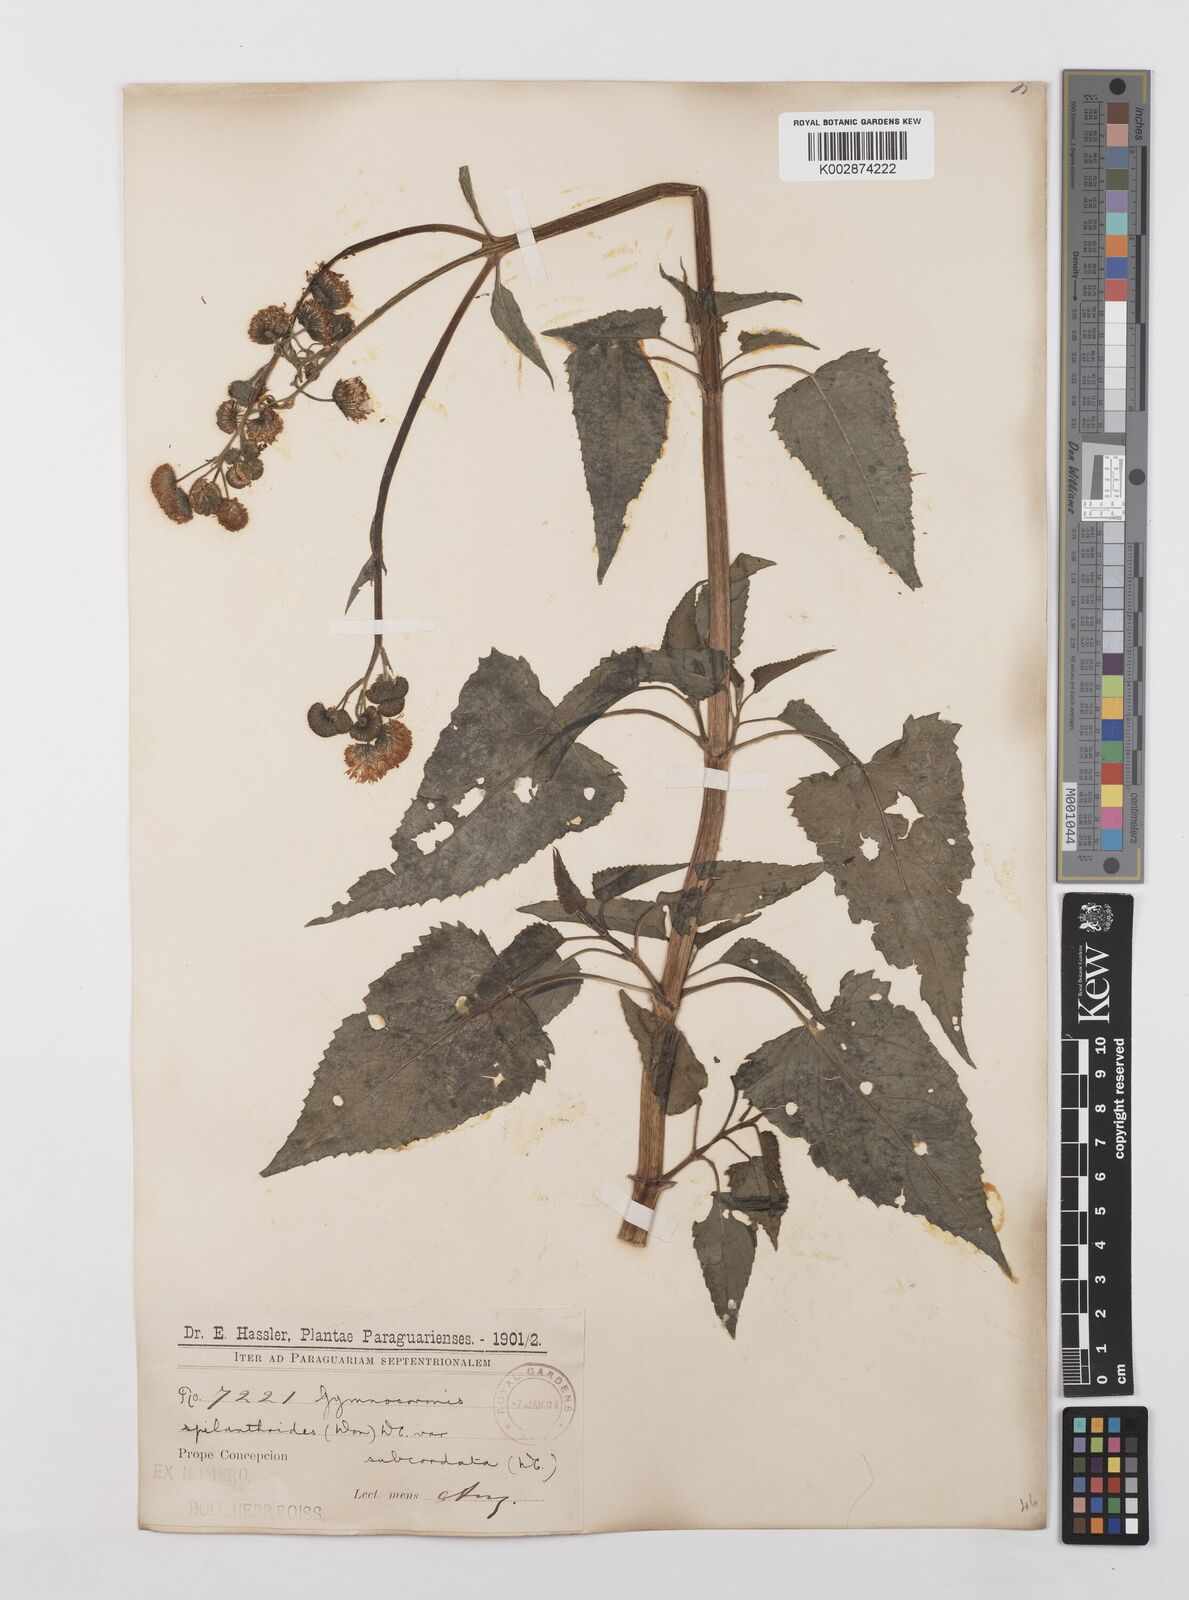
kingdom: Plantae
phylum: Tracheophyta
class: Magnoliopsida
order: Asterales
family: Asteraceae
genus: Gymnocoronis
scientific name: Gymnocoronis spilanthoides
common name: Senegal teaplant
